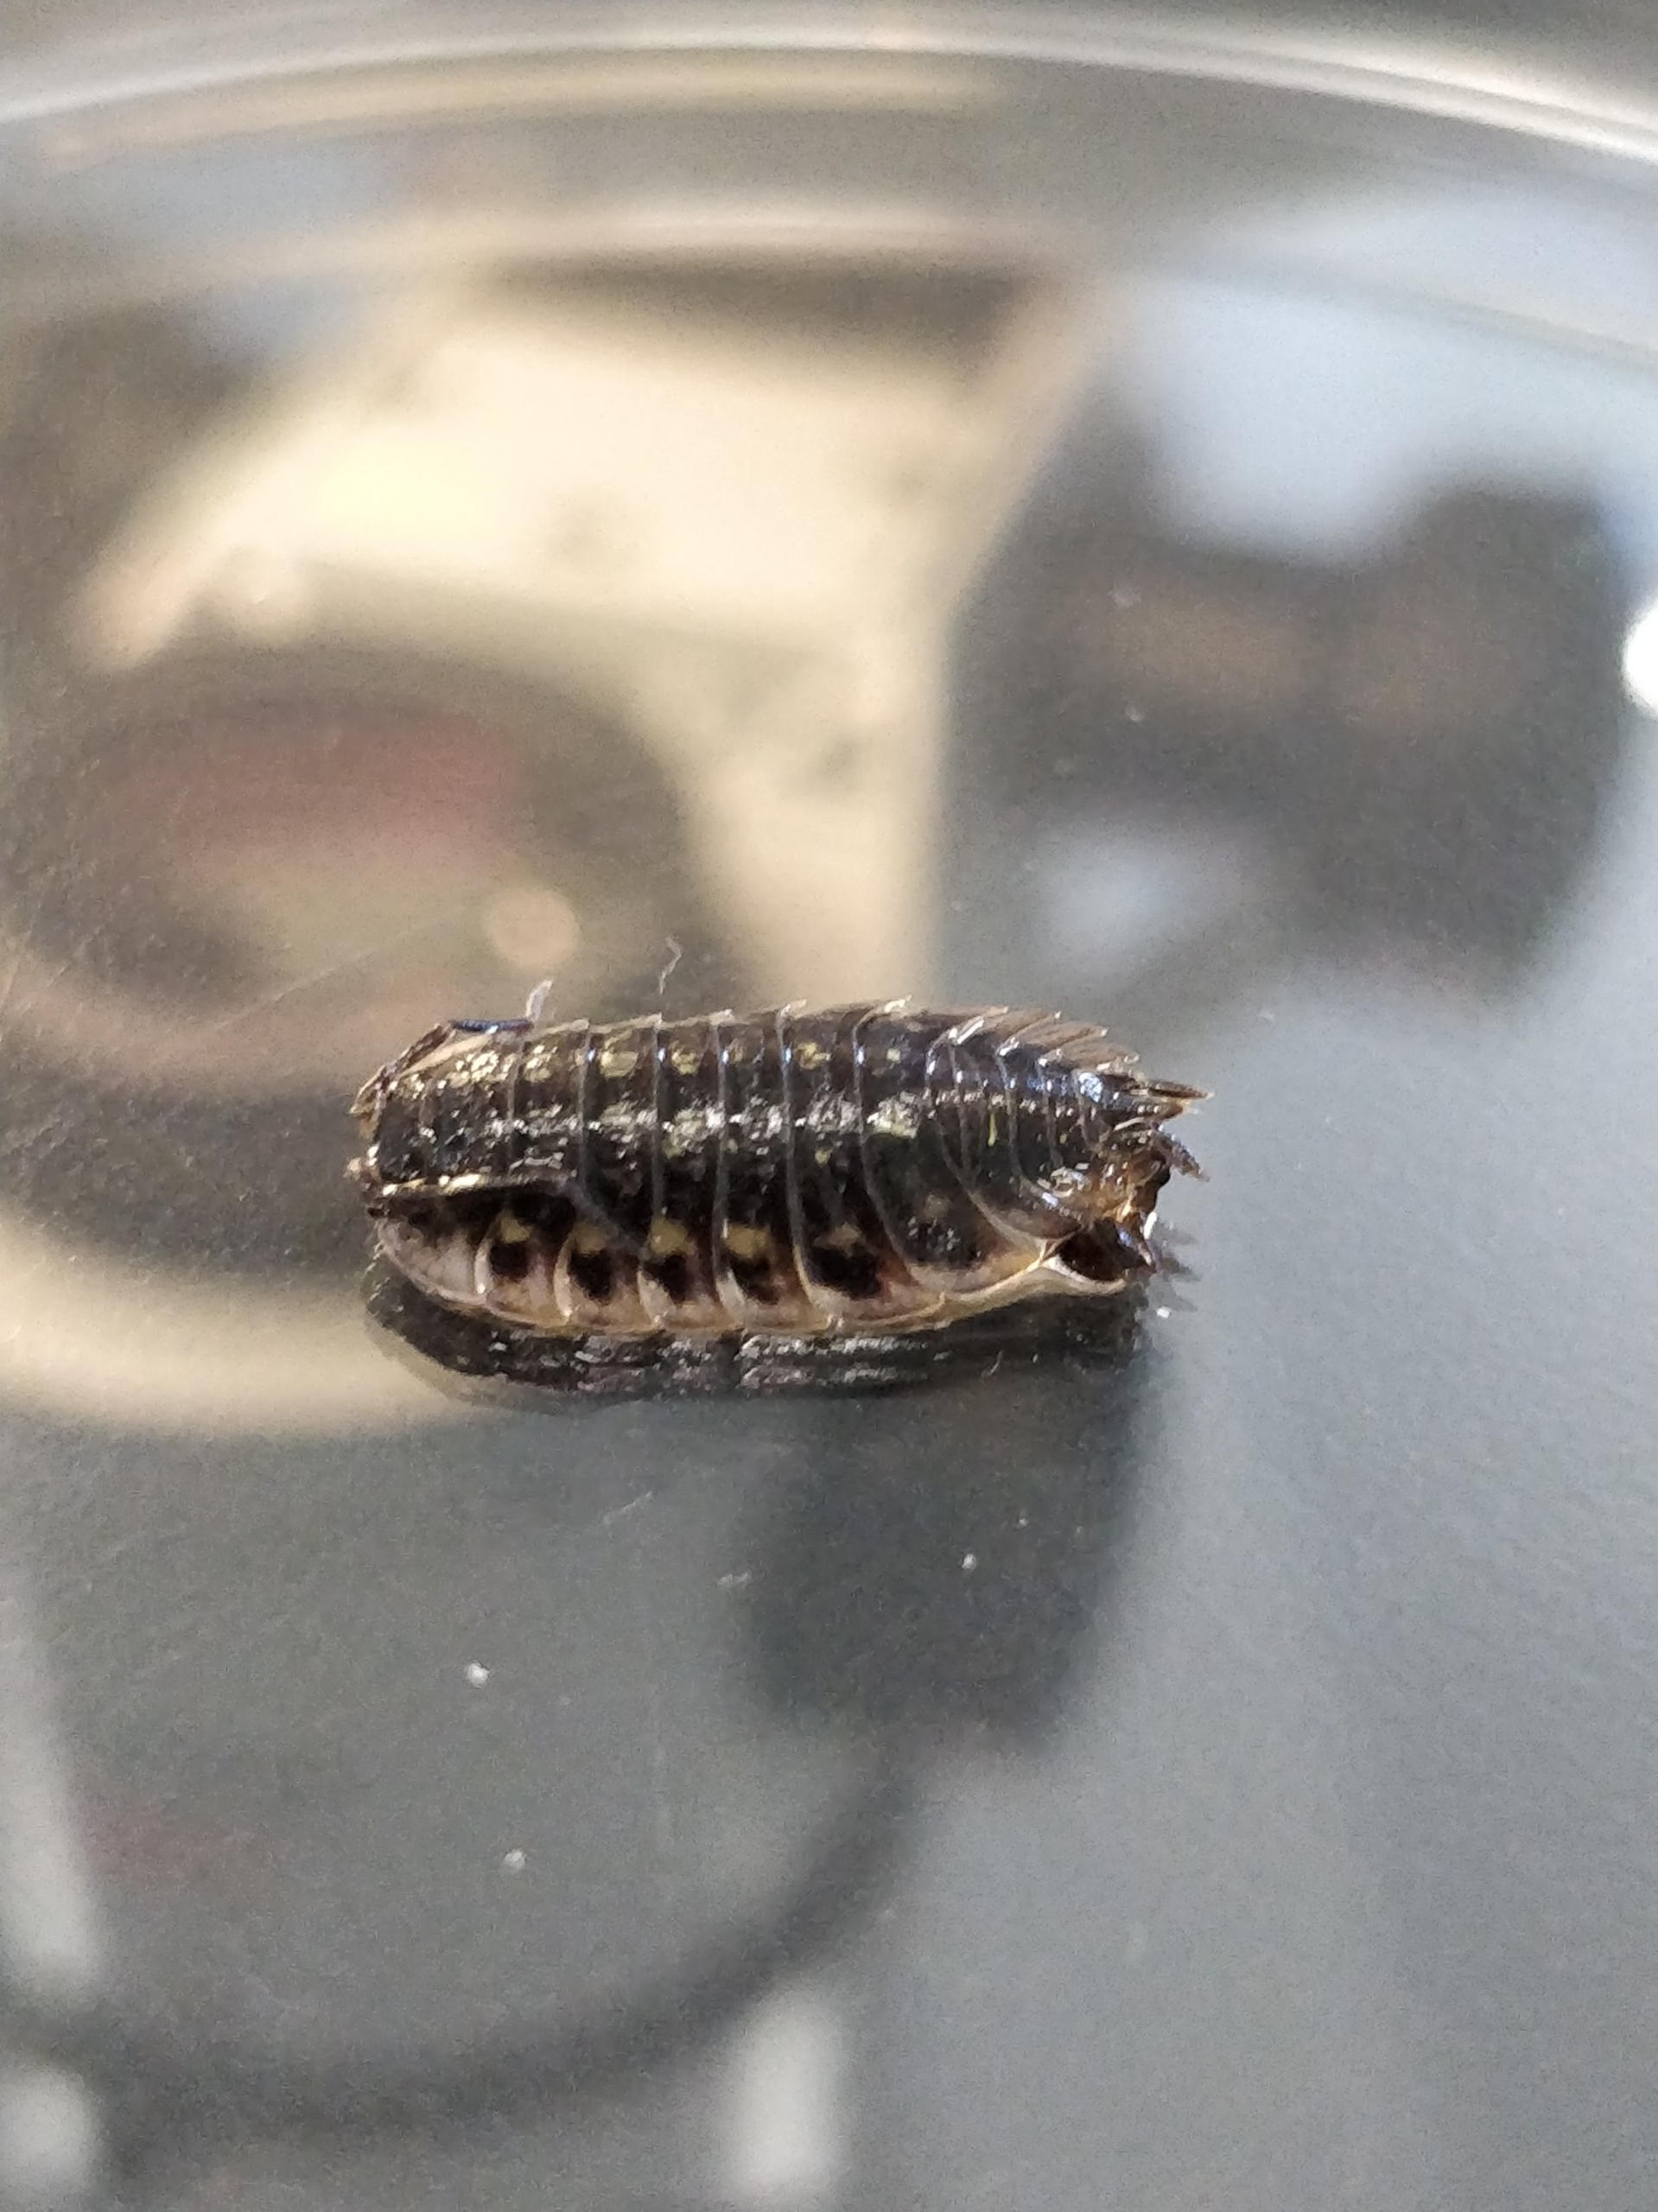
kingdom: Animalia
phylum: Arthropoda
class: Malacostraca
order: Isopoda
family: Oniscidae
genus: Oniscus
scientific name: Oniscus asellus
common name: Glat bænkebider
